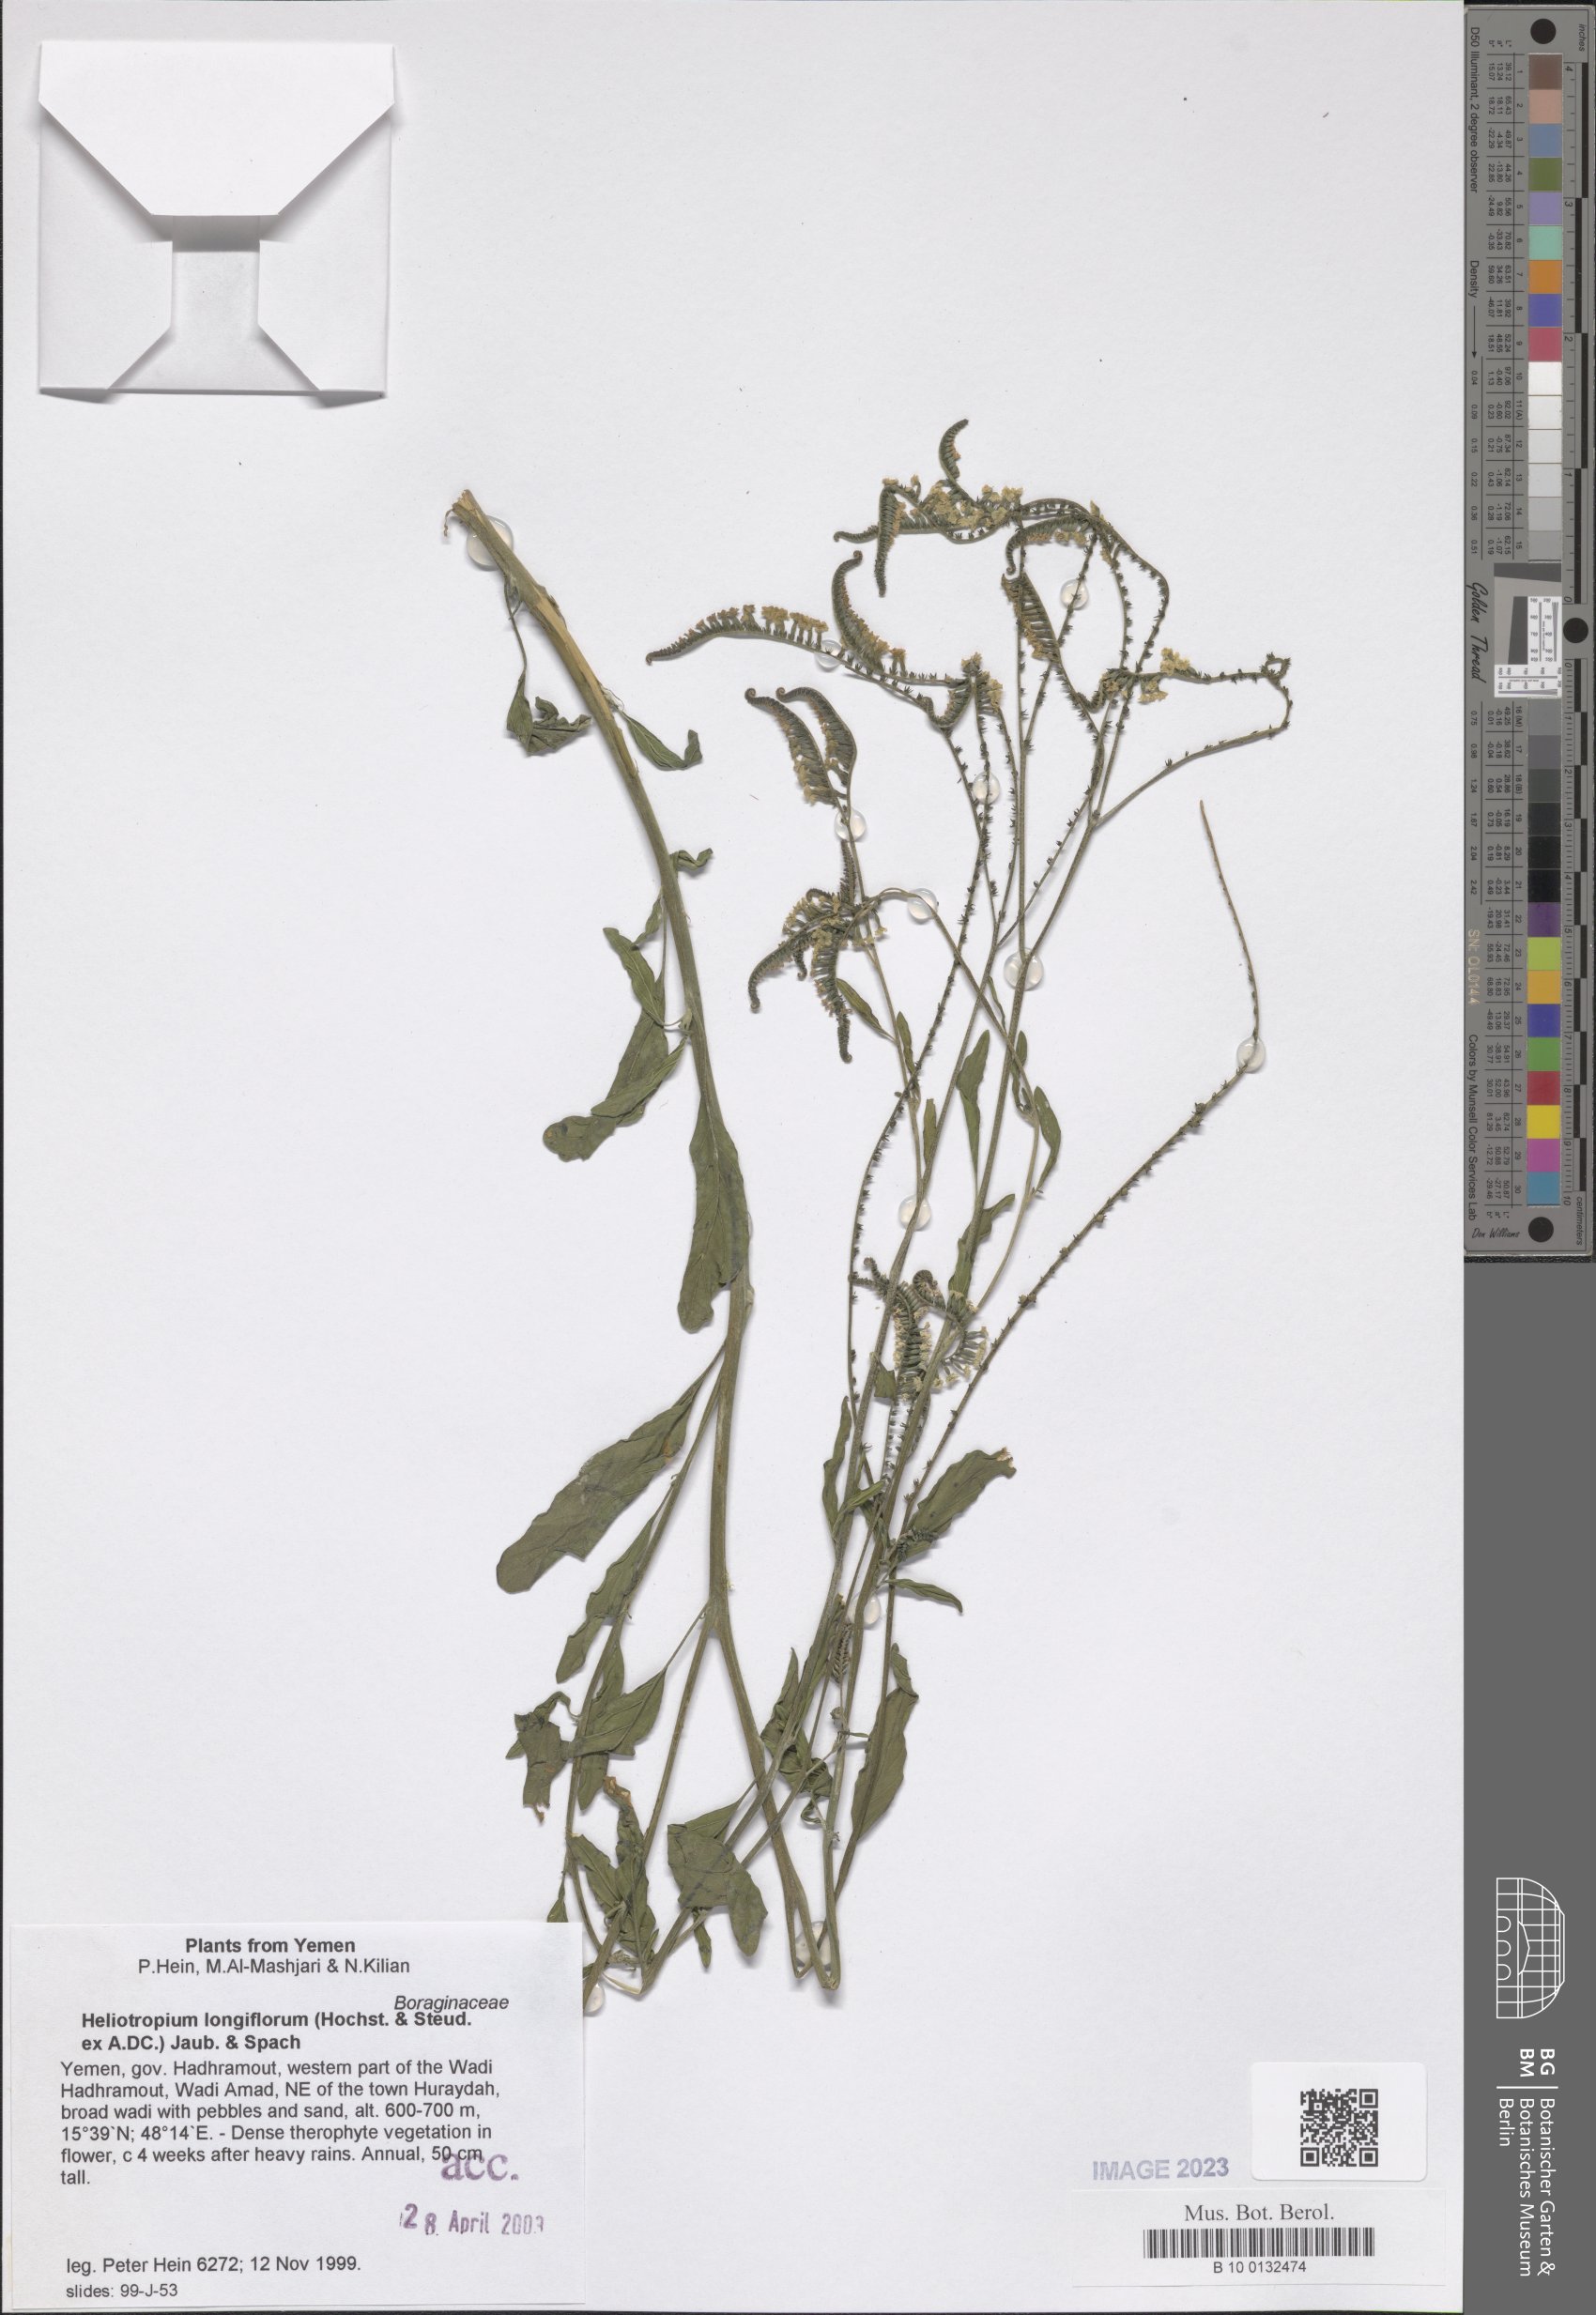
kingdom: Plantae
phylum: Tracheophyta
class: Magnoliopsida
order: Boraginales
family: Heliotropiaceae
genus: Heliotropium
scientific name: Heliotropium longiflorum
